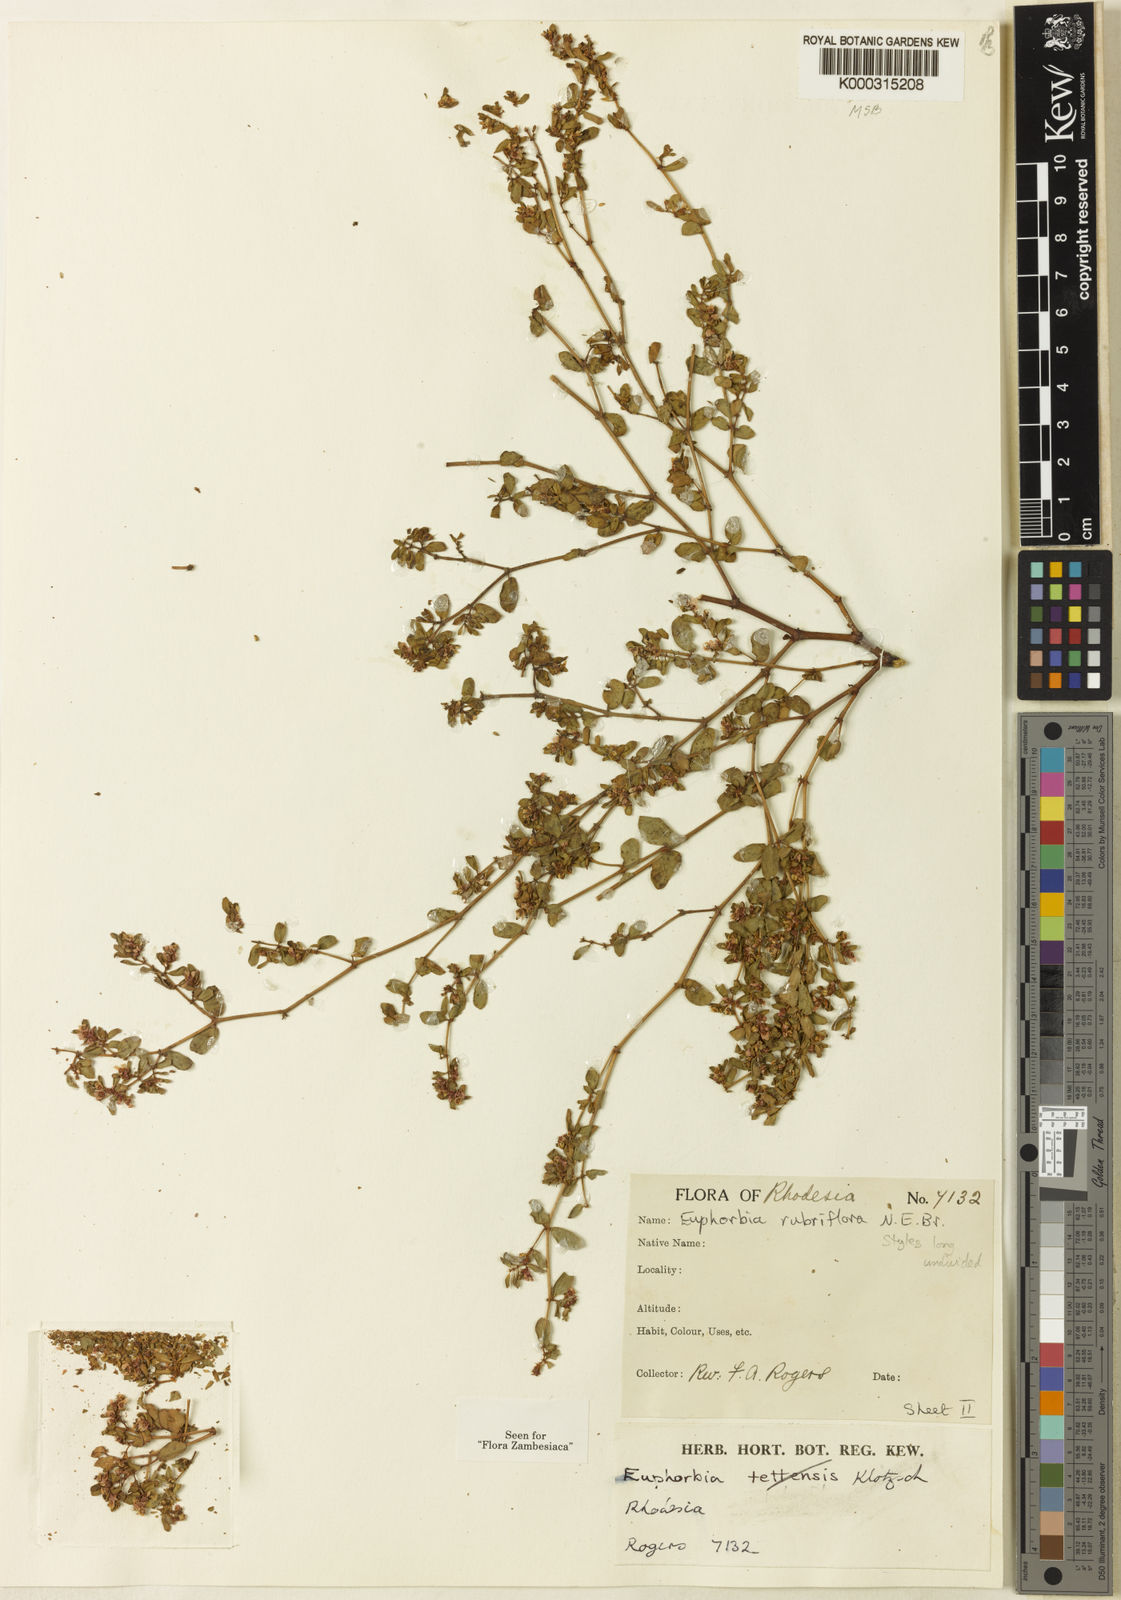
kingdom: Plantae
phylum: Tracheophyta
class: Magnoliopsida
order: Malpighiales
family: Euphorbiaceae
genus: Euphorbia
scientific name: Euphorbia rubriflora
